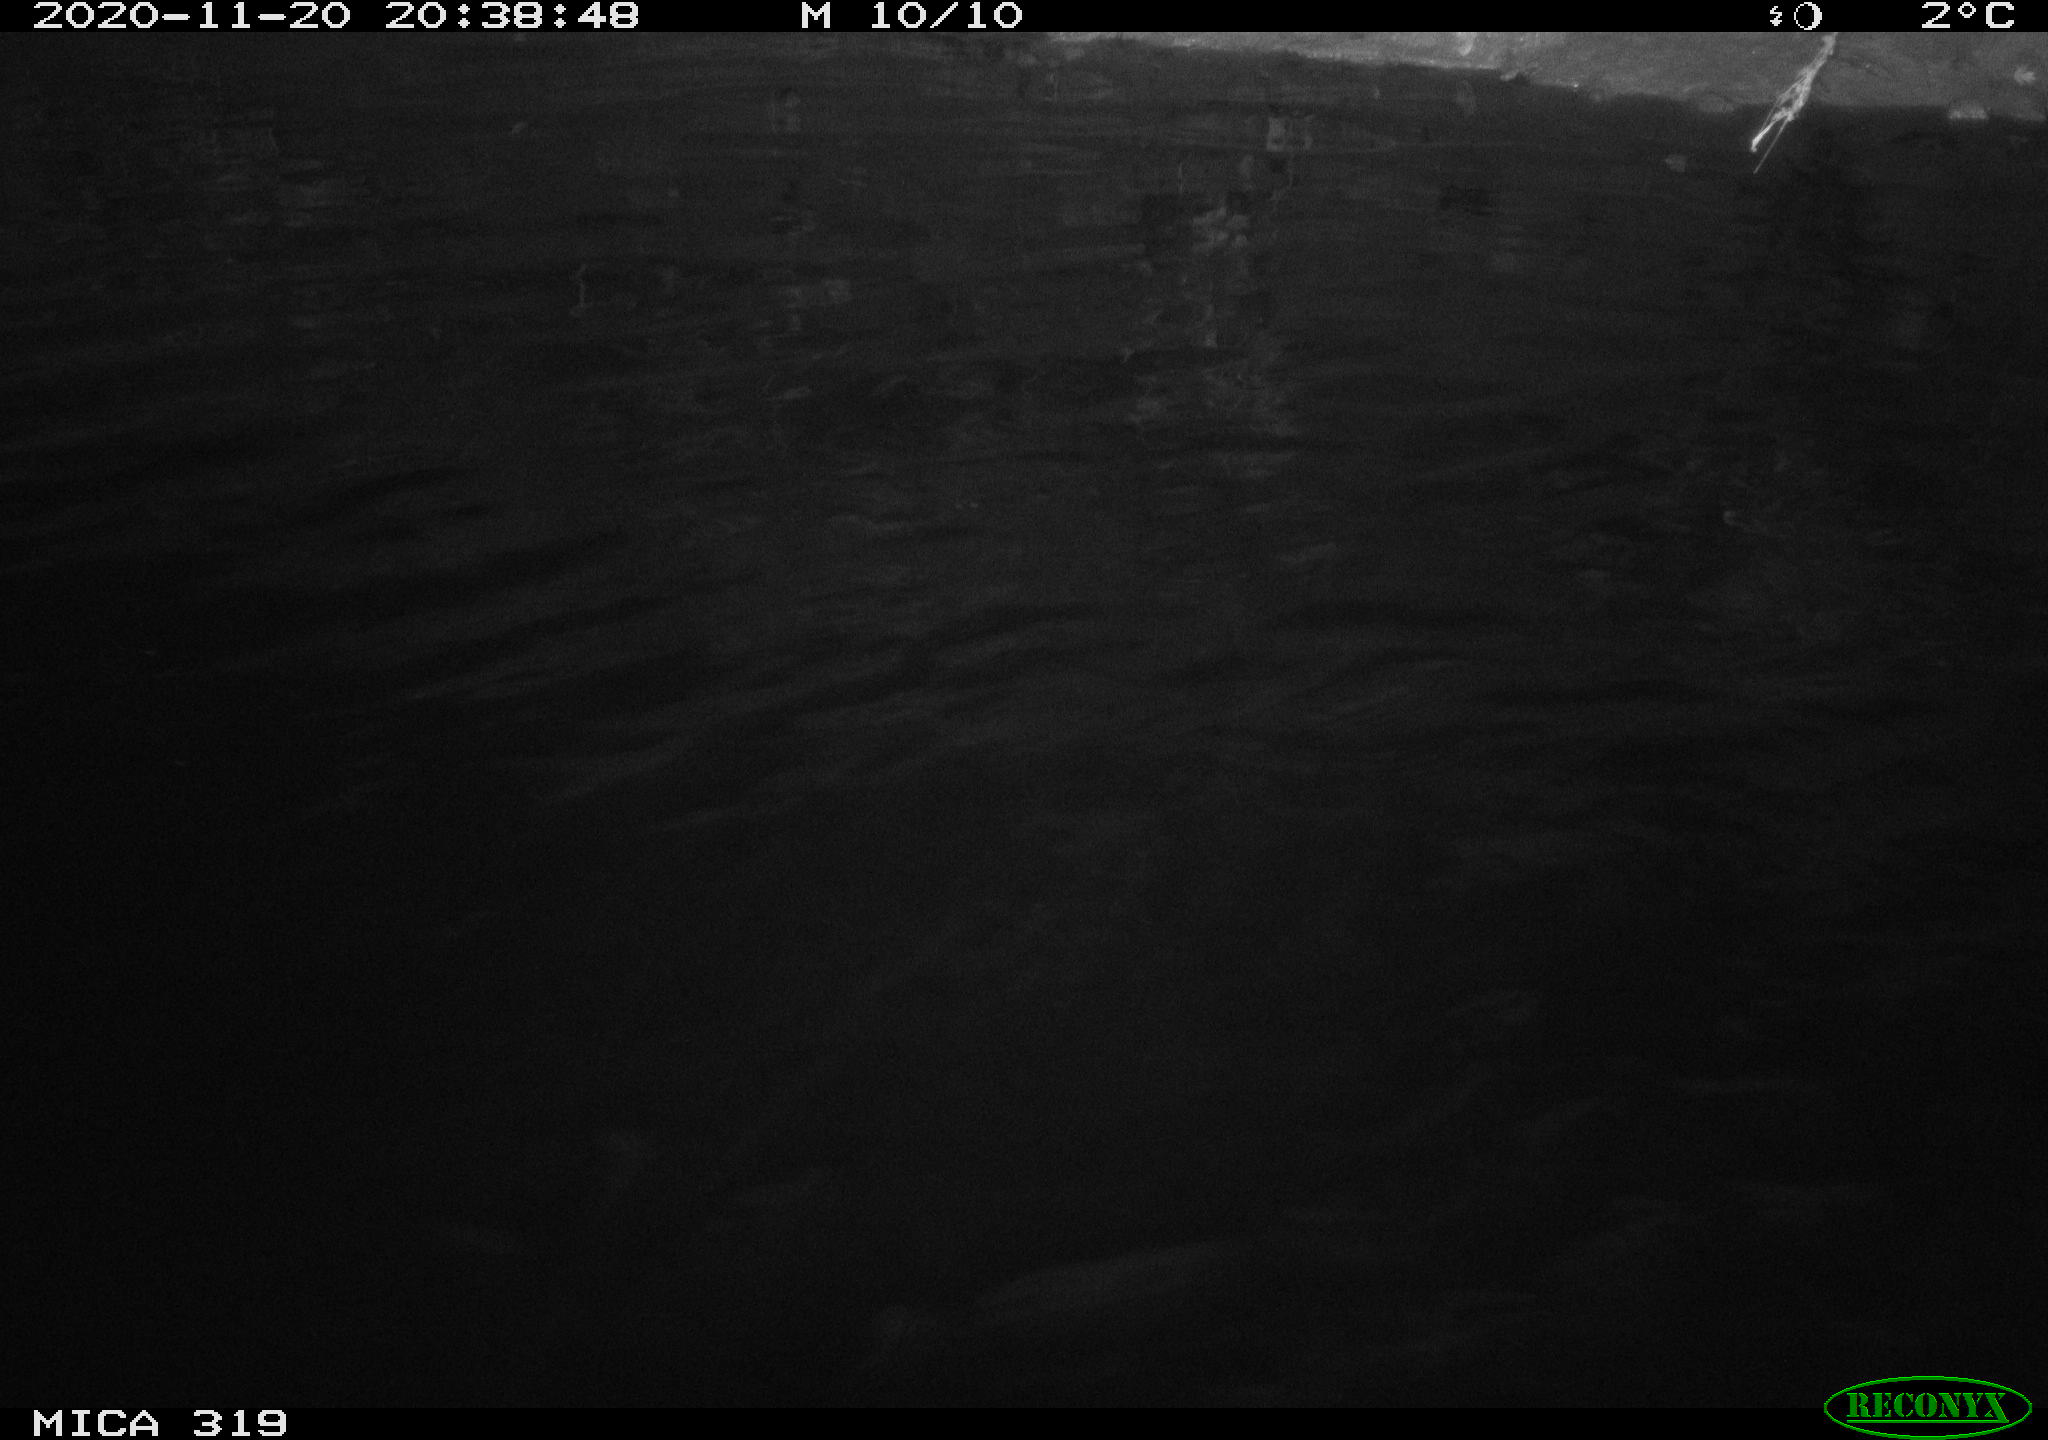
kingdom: Animalia
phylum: Chordata
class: Aves
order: Anseriformes
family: Anatidae
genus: Anas
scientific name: Anas platyrhynchos
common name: Mallard
